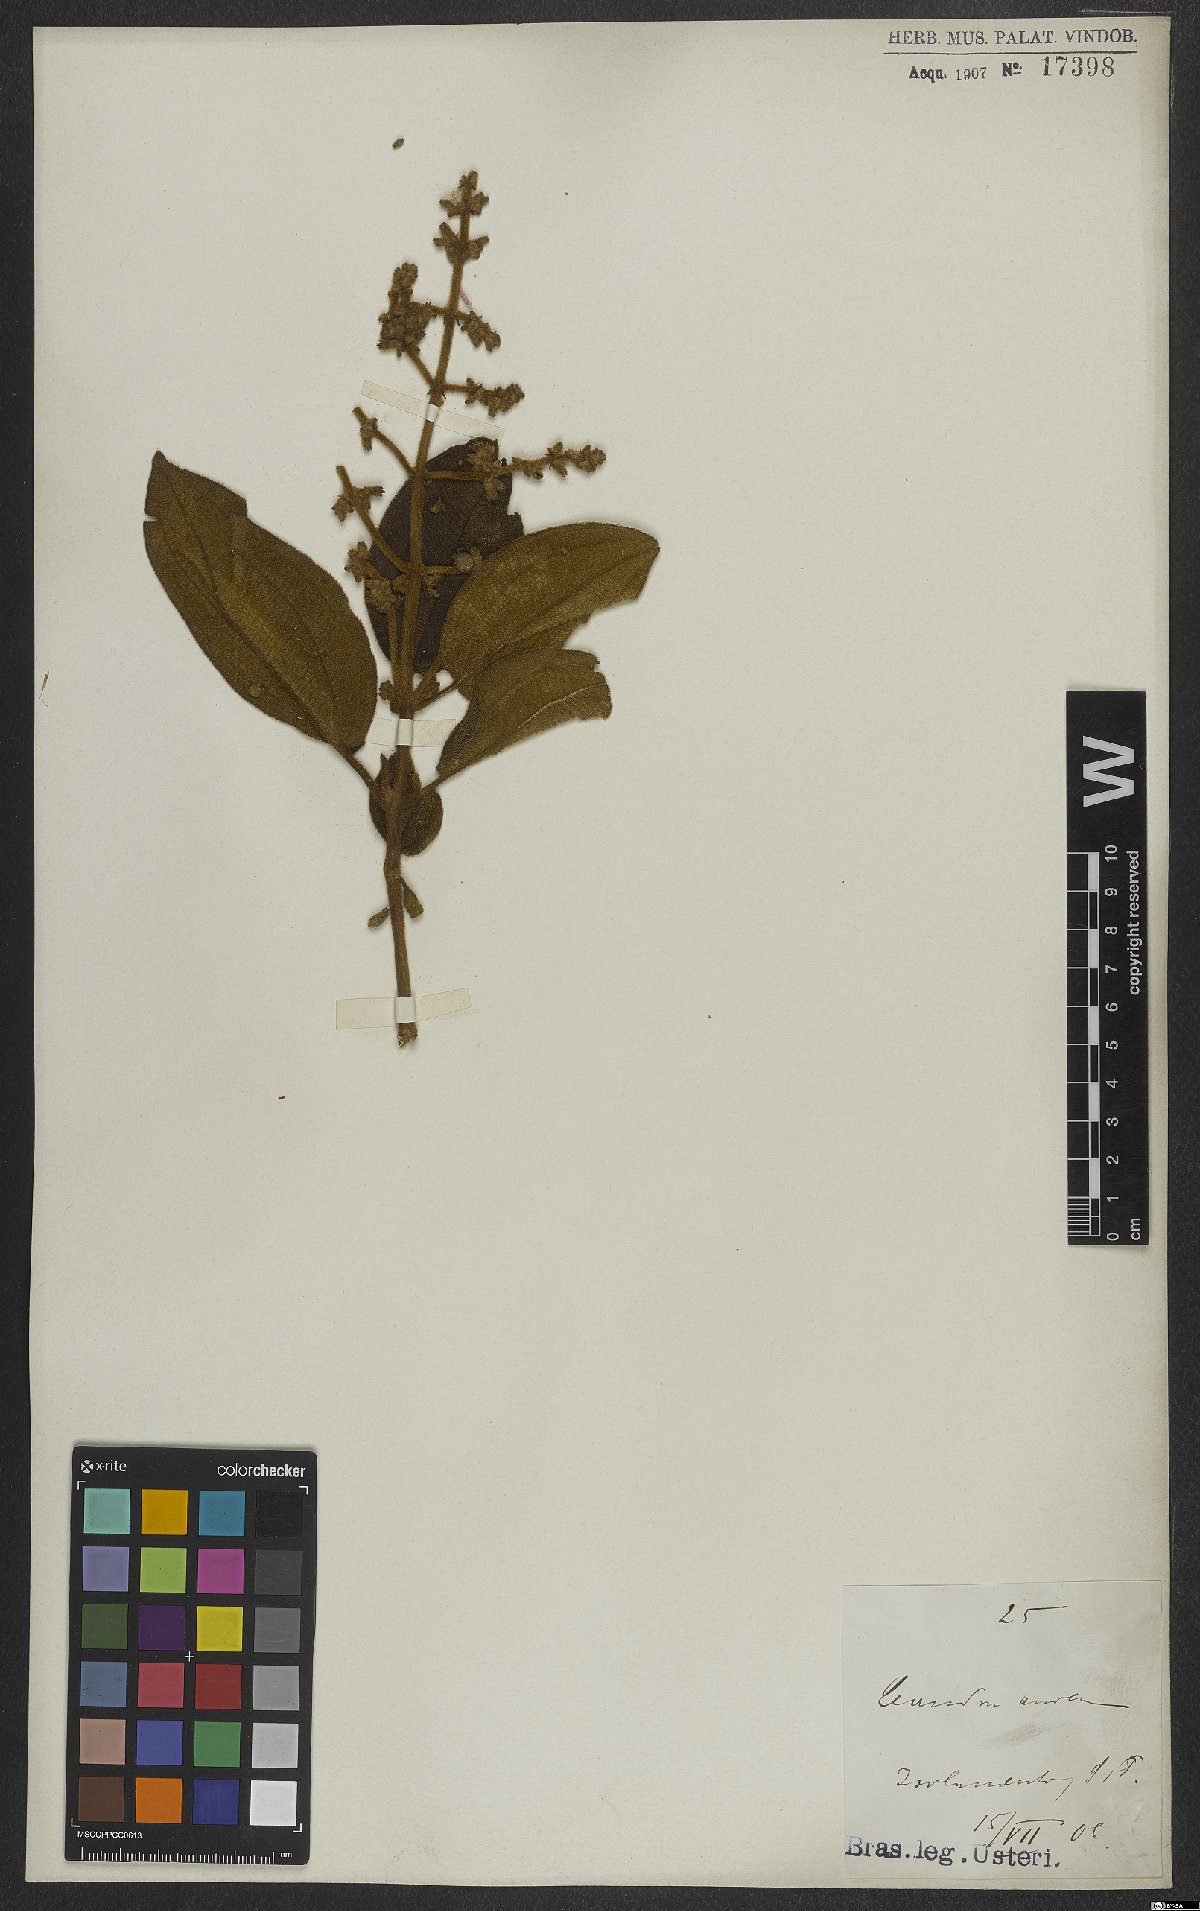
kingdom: Plantae
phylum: Tracheophyta
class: Magnoliopsida
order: Myrtales
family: Melastomataceae
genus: Miconia
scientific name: Miconia auricoma
